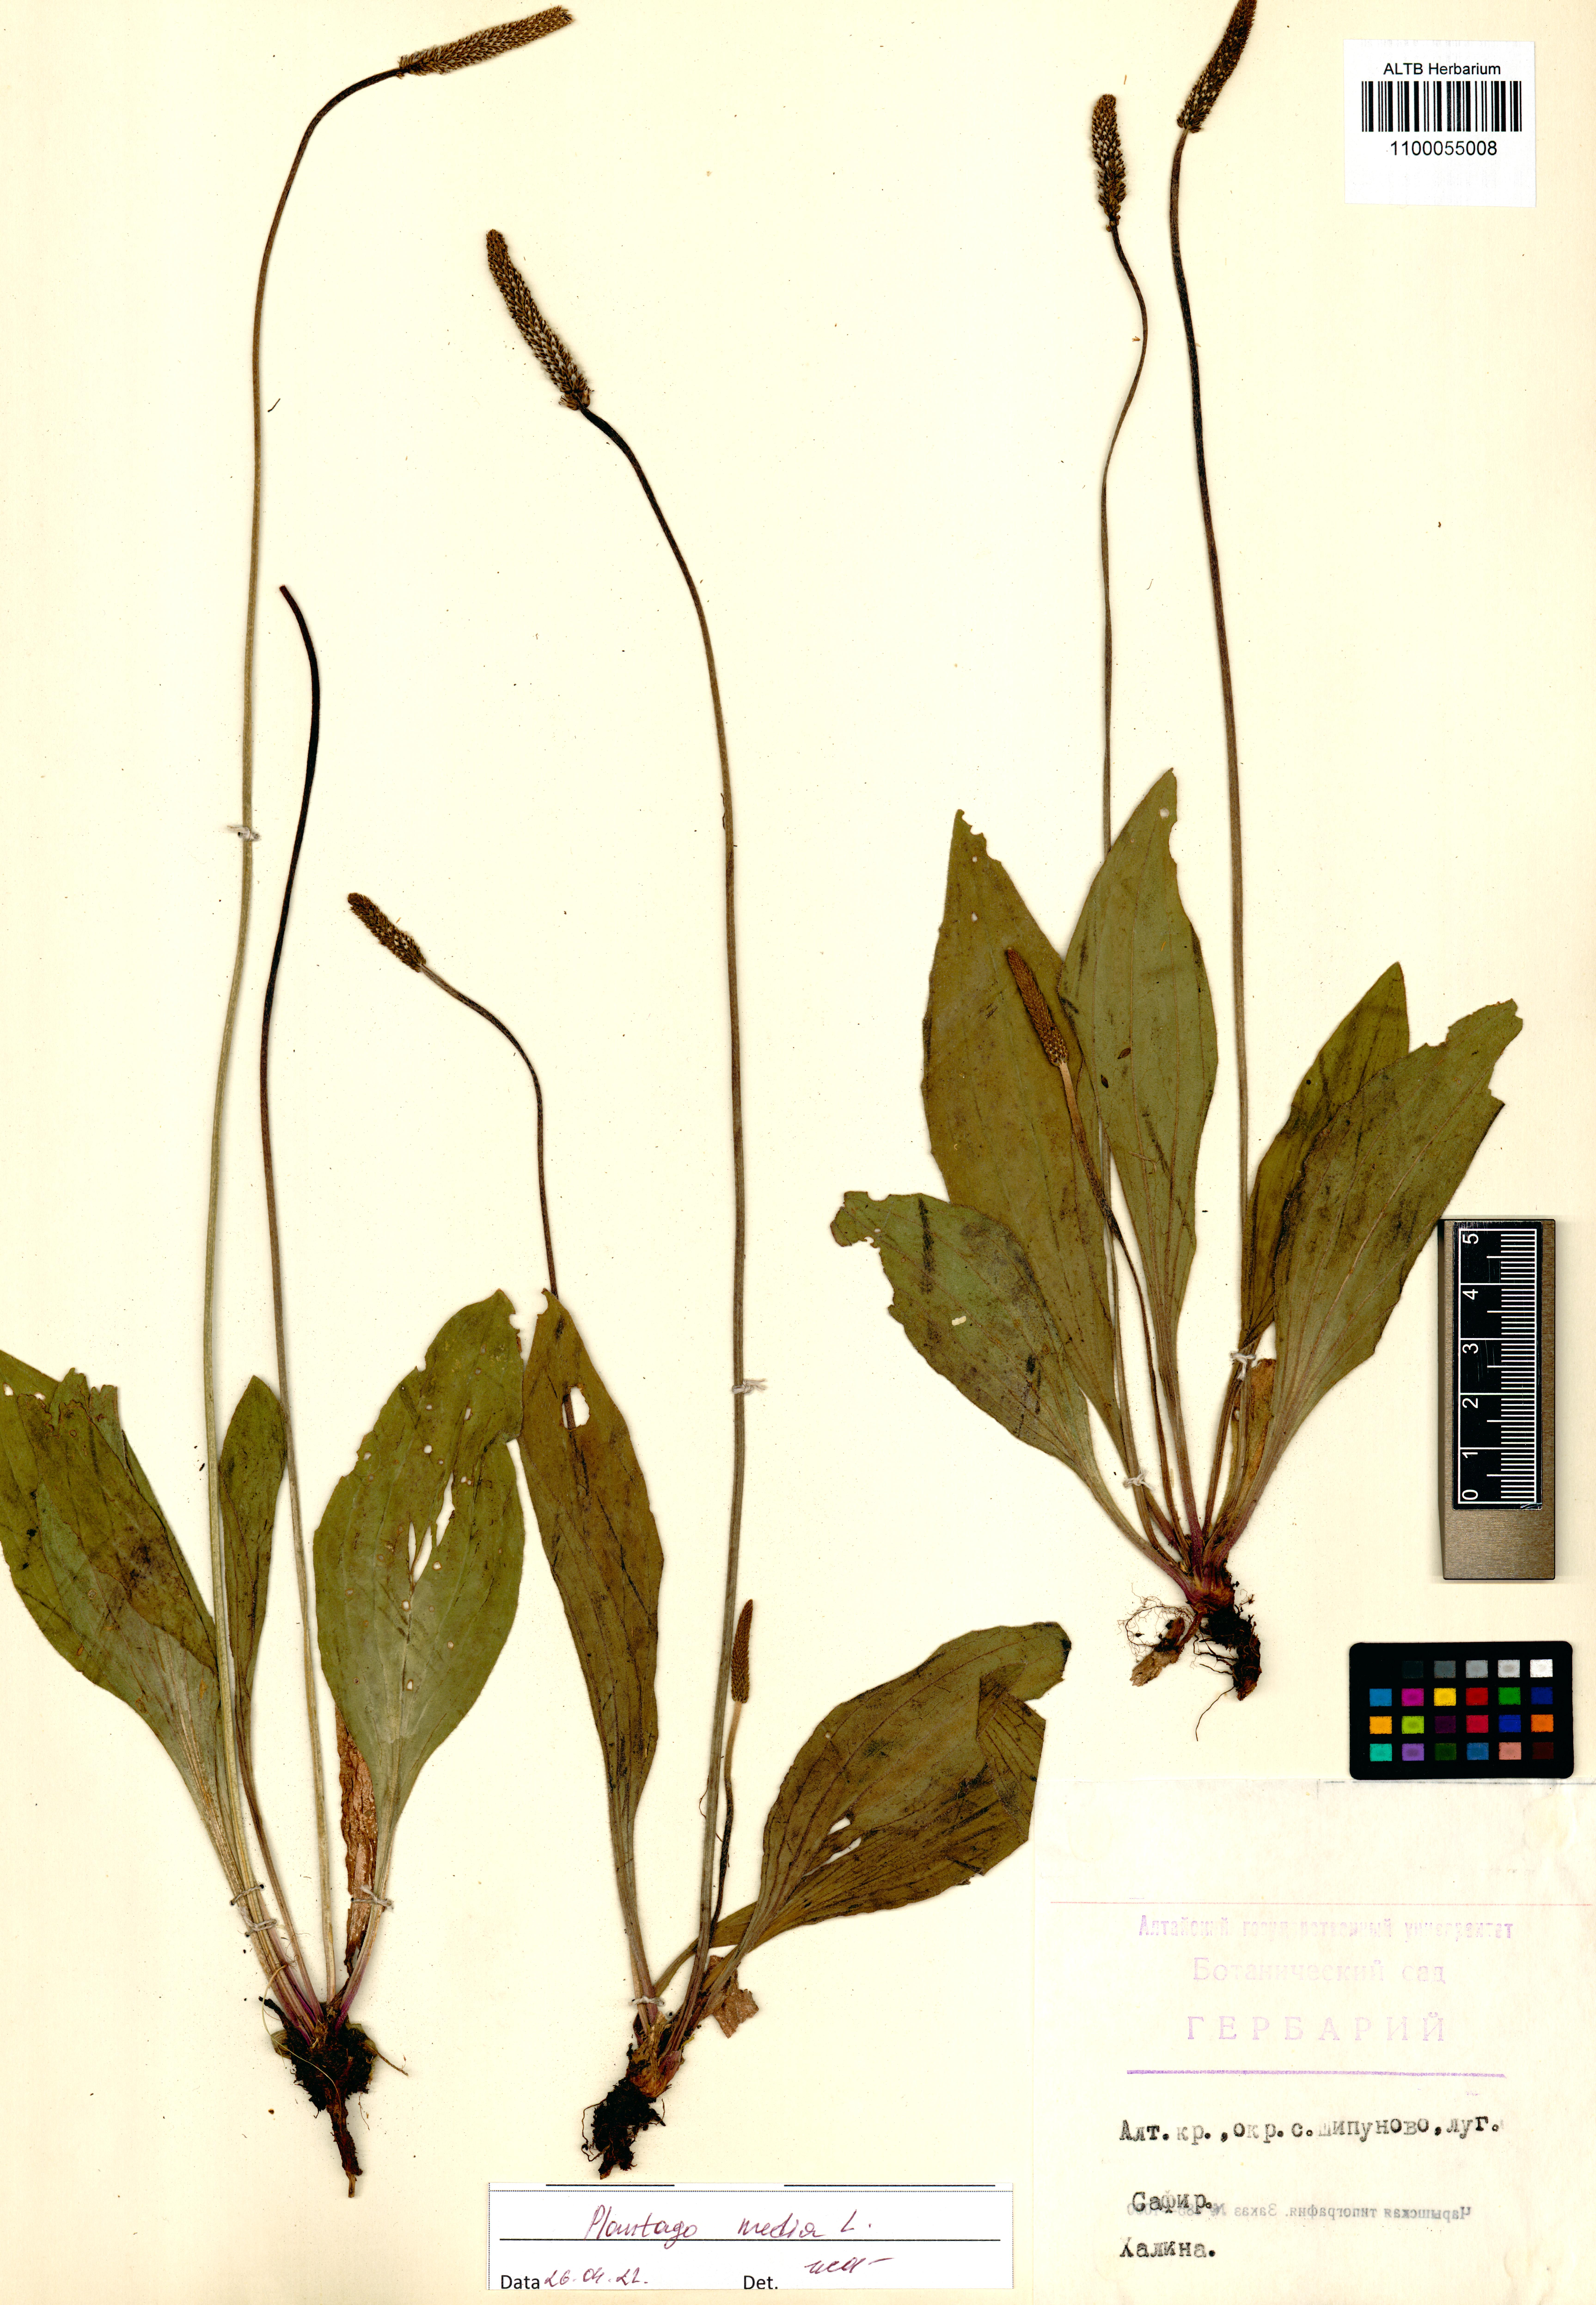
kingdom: Plantae
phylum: Tracheophyta
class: Magnoliopsida
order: Lamiales
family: Plantaginaceae
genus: Plantago
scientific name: Plantago media
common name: Hoary plantain
